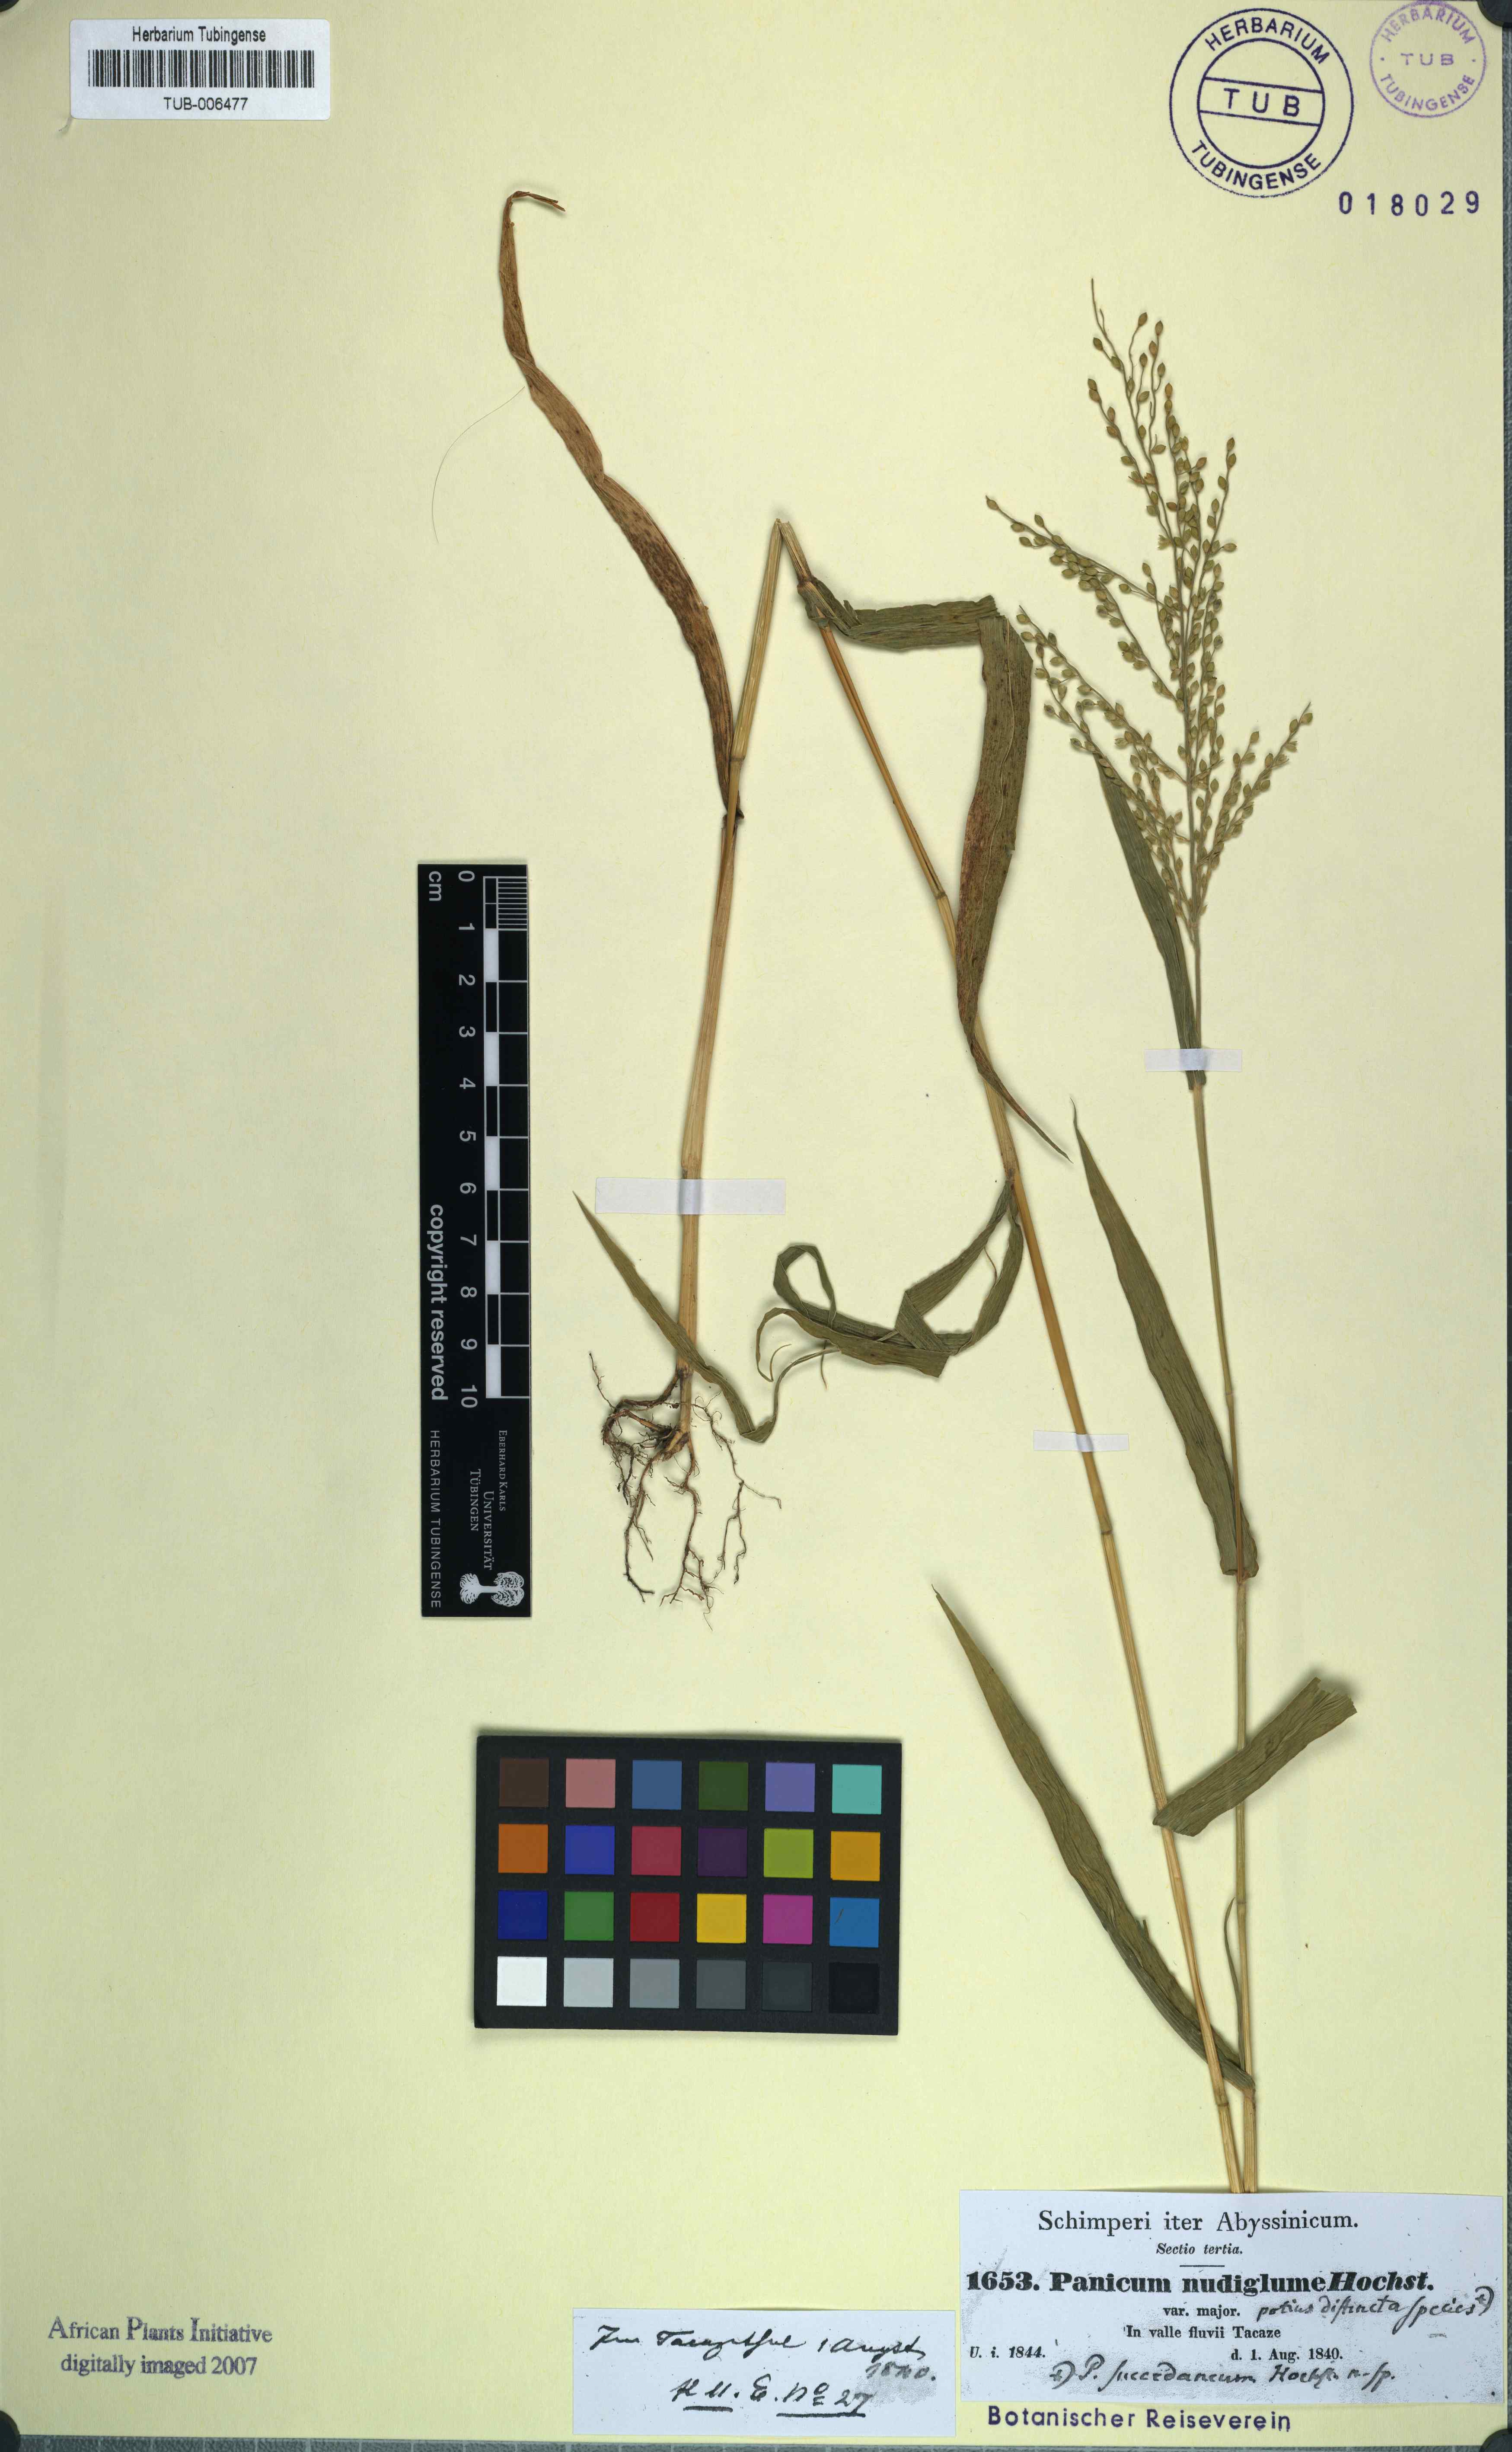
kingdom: Plantae
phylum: Tracheophyta
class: Liliopsida
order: Poales
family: Poaceae
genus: Urochloa
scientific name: Urochloa ramosa
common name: Browntop millet
